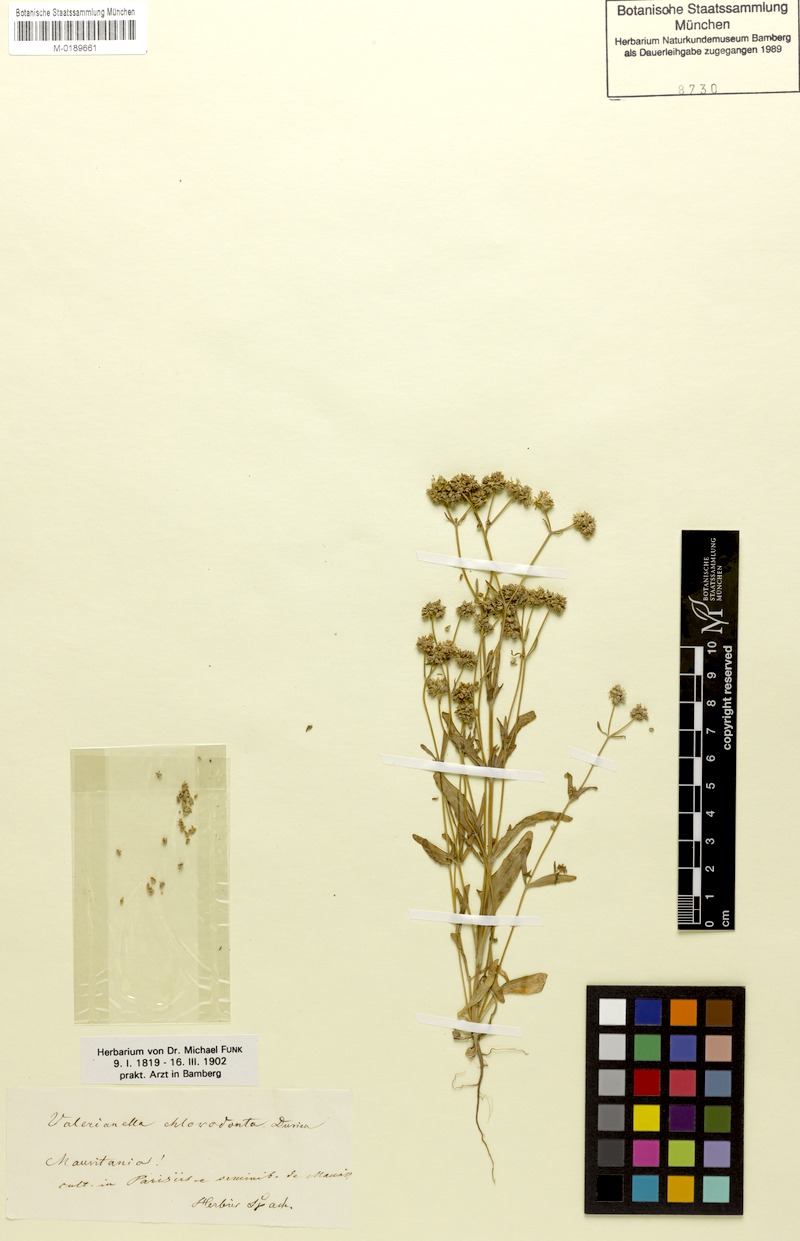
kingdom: Plantae
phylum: Tracheophyta
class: Magnoliopsida
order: Dipsacales
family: Caprifoliaceae
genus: Valerianella
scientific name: Valerianella chlorodonta
